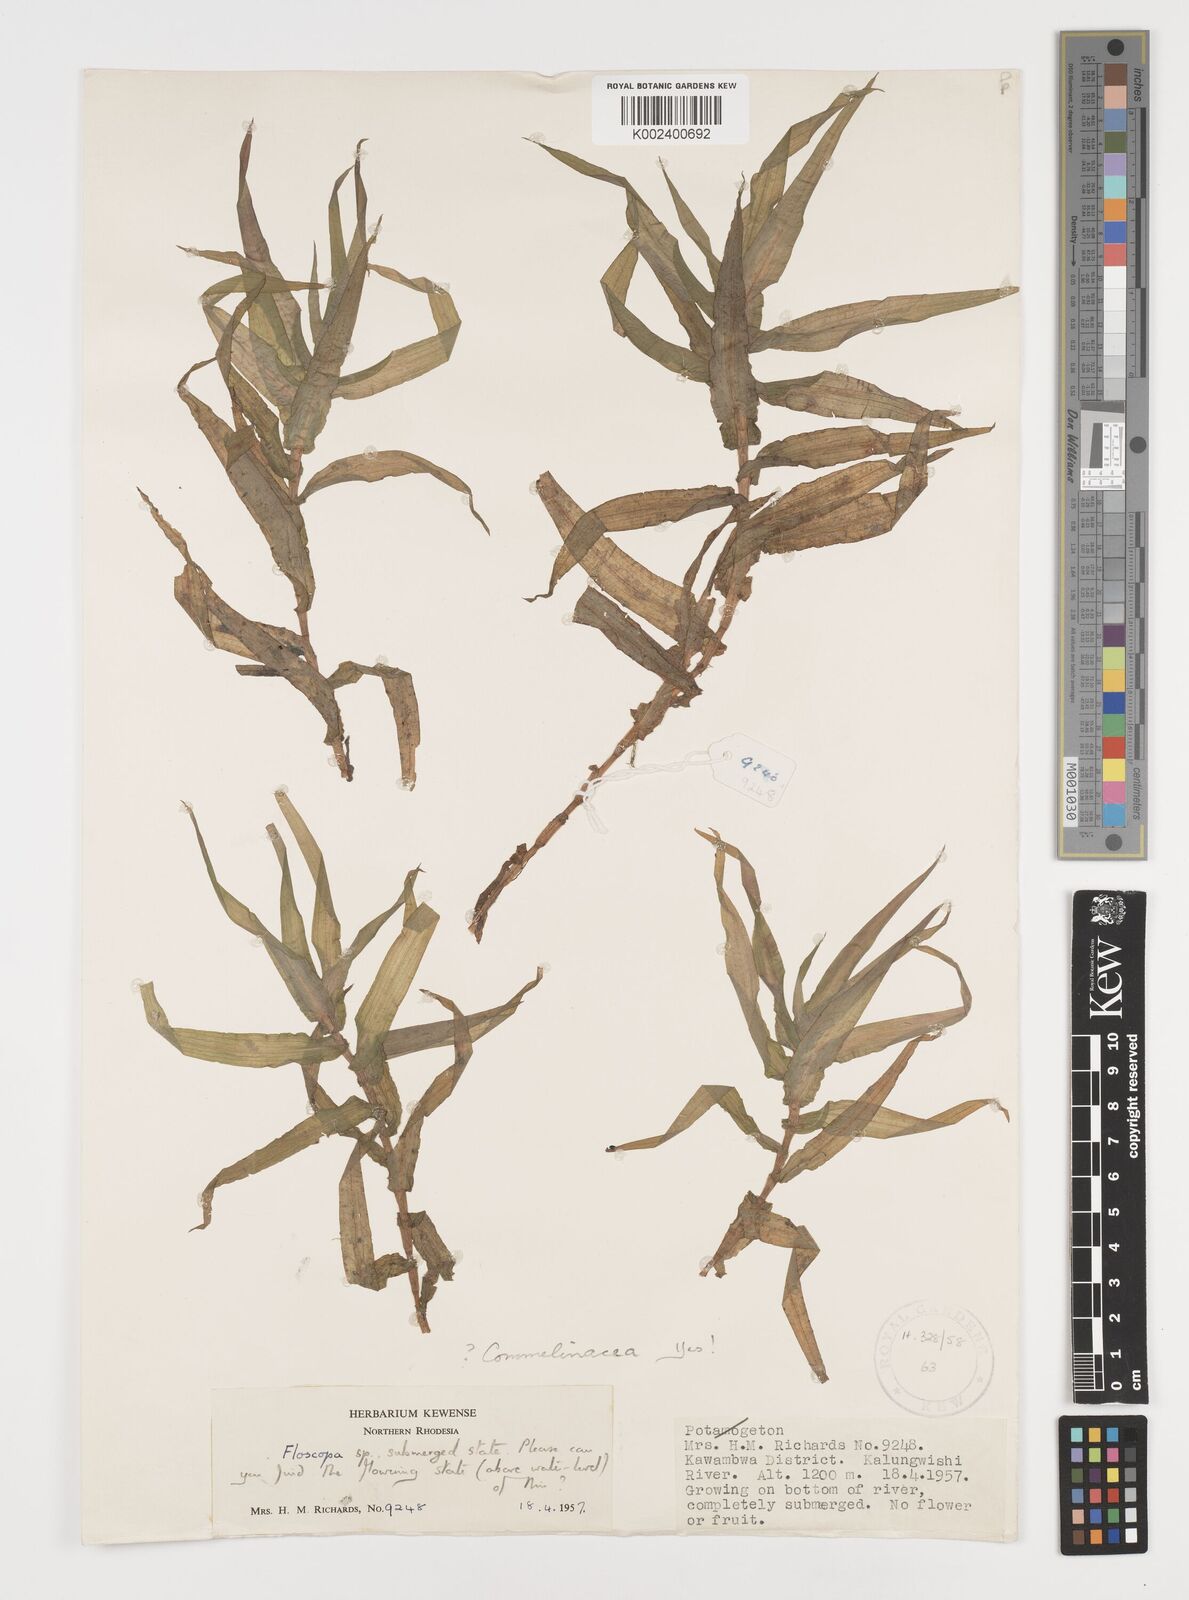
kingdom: Plantae
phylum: Tracheophyta
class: Liliopsida
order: Commelinales
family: Commelinaceae
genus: Floscopa
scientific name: Floscopa
